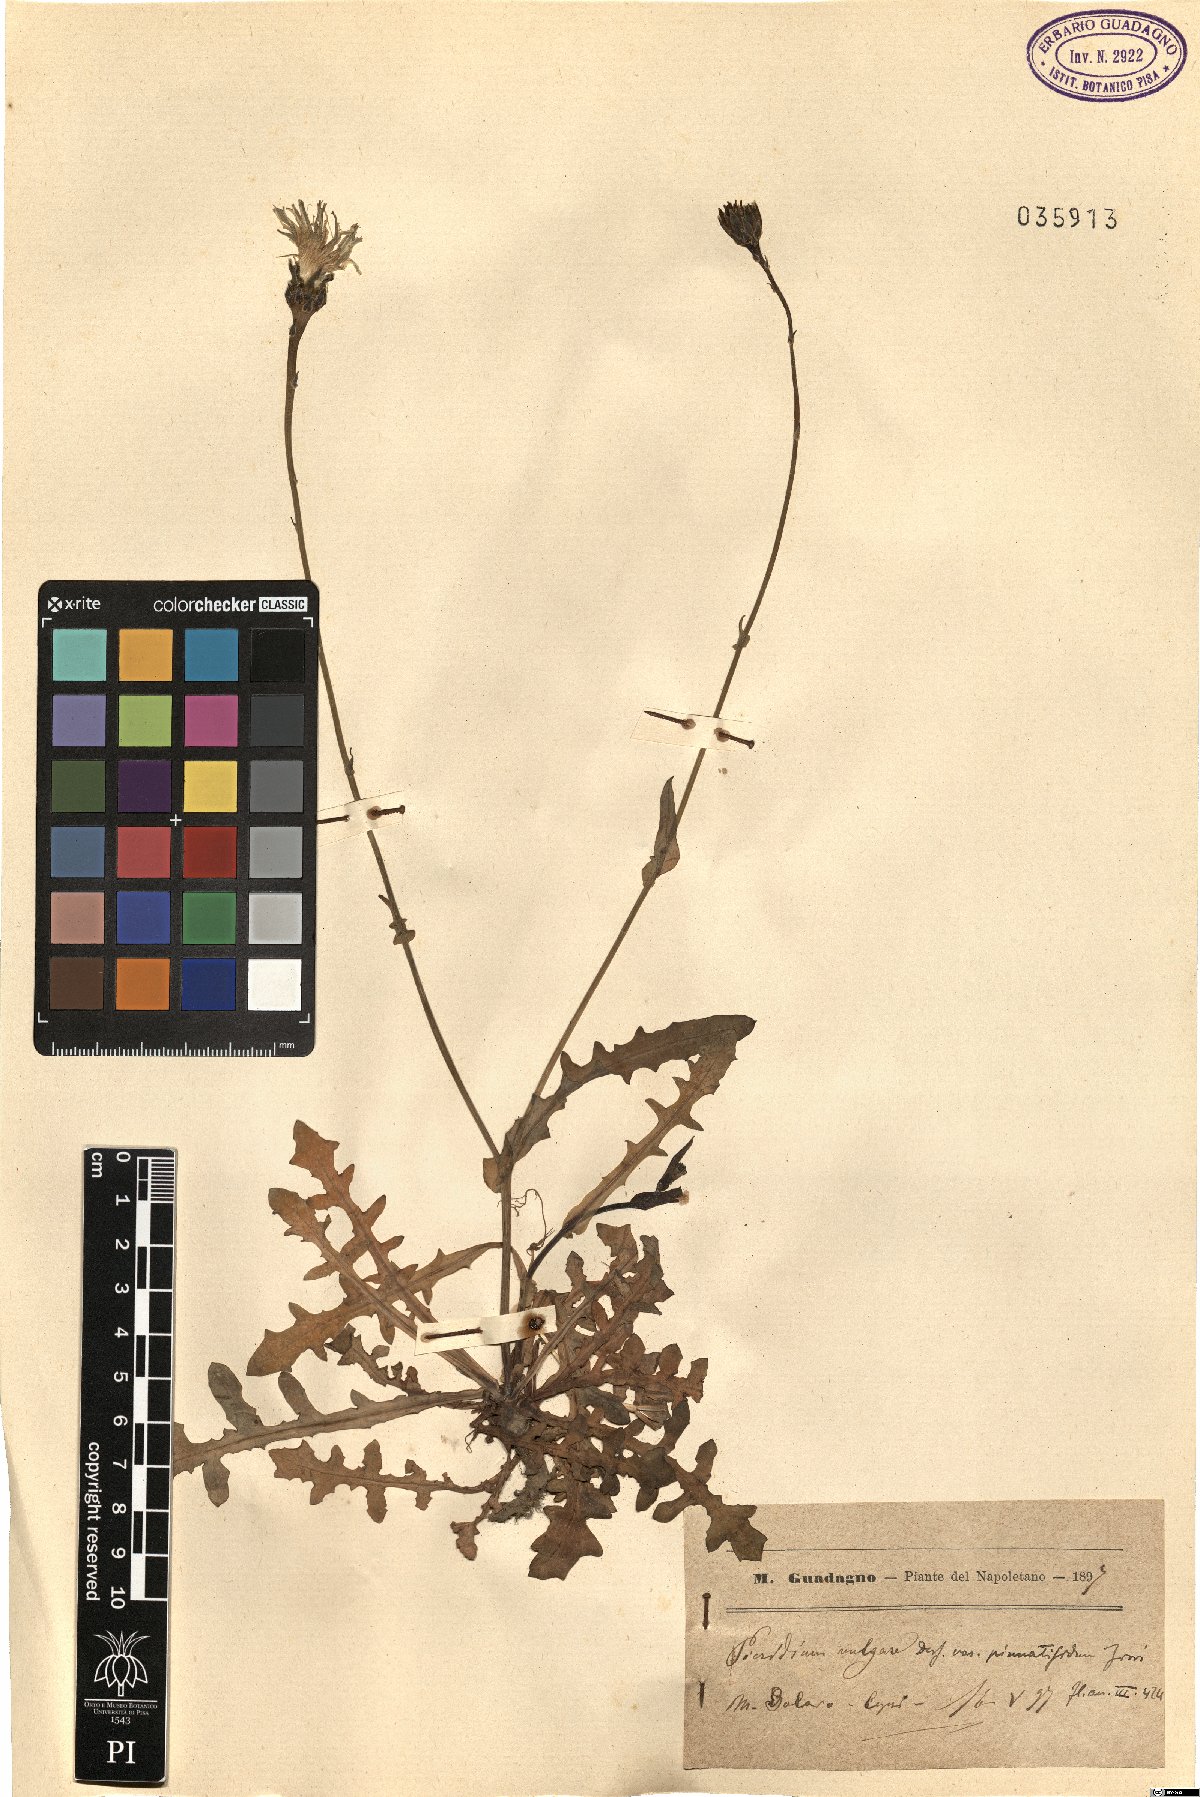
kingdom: Plantae
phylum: Tracheophyta
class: Magnoliopsida
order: Asterales
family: Asteraceae
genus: Reichardia
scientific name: Reichardia picroides
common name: Common brighteyes
